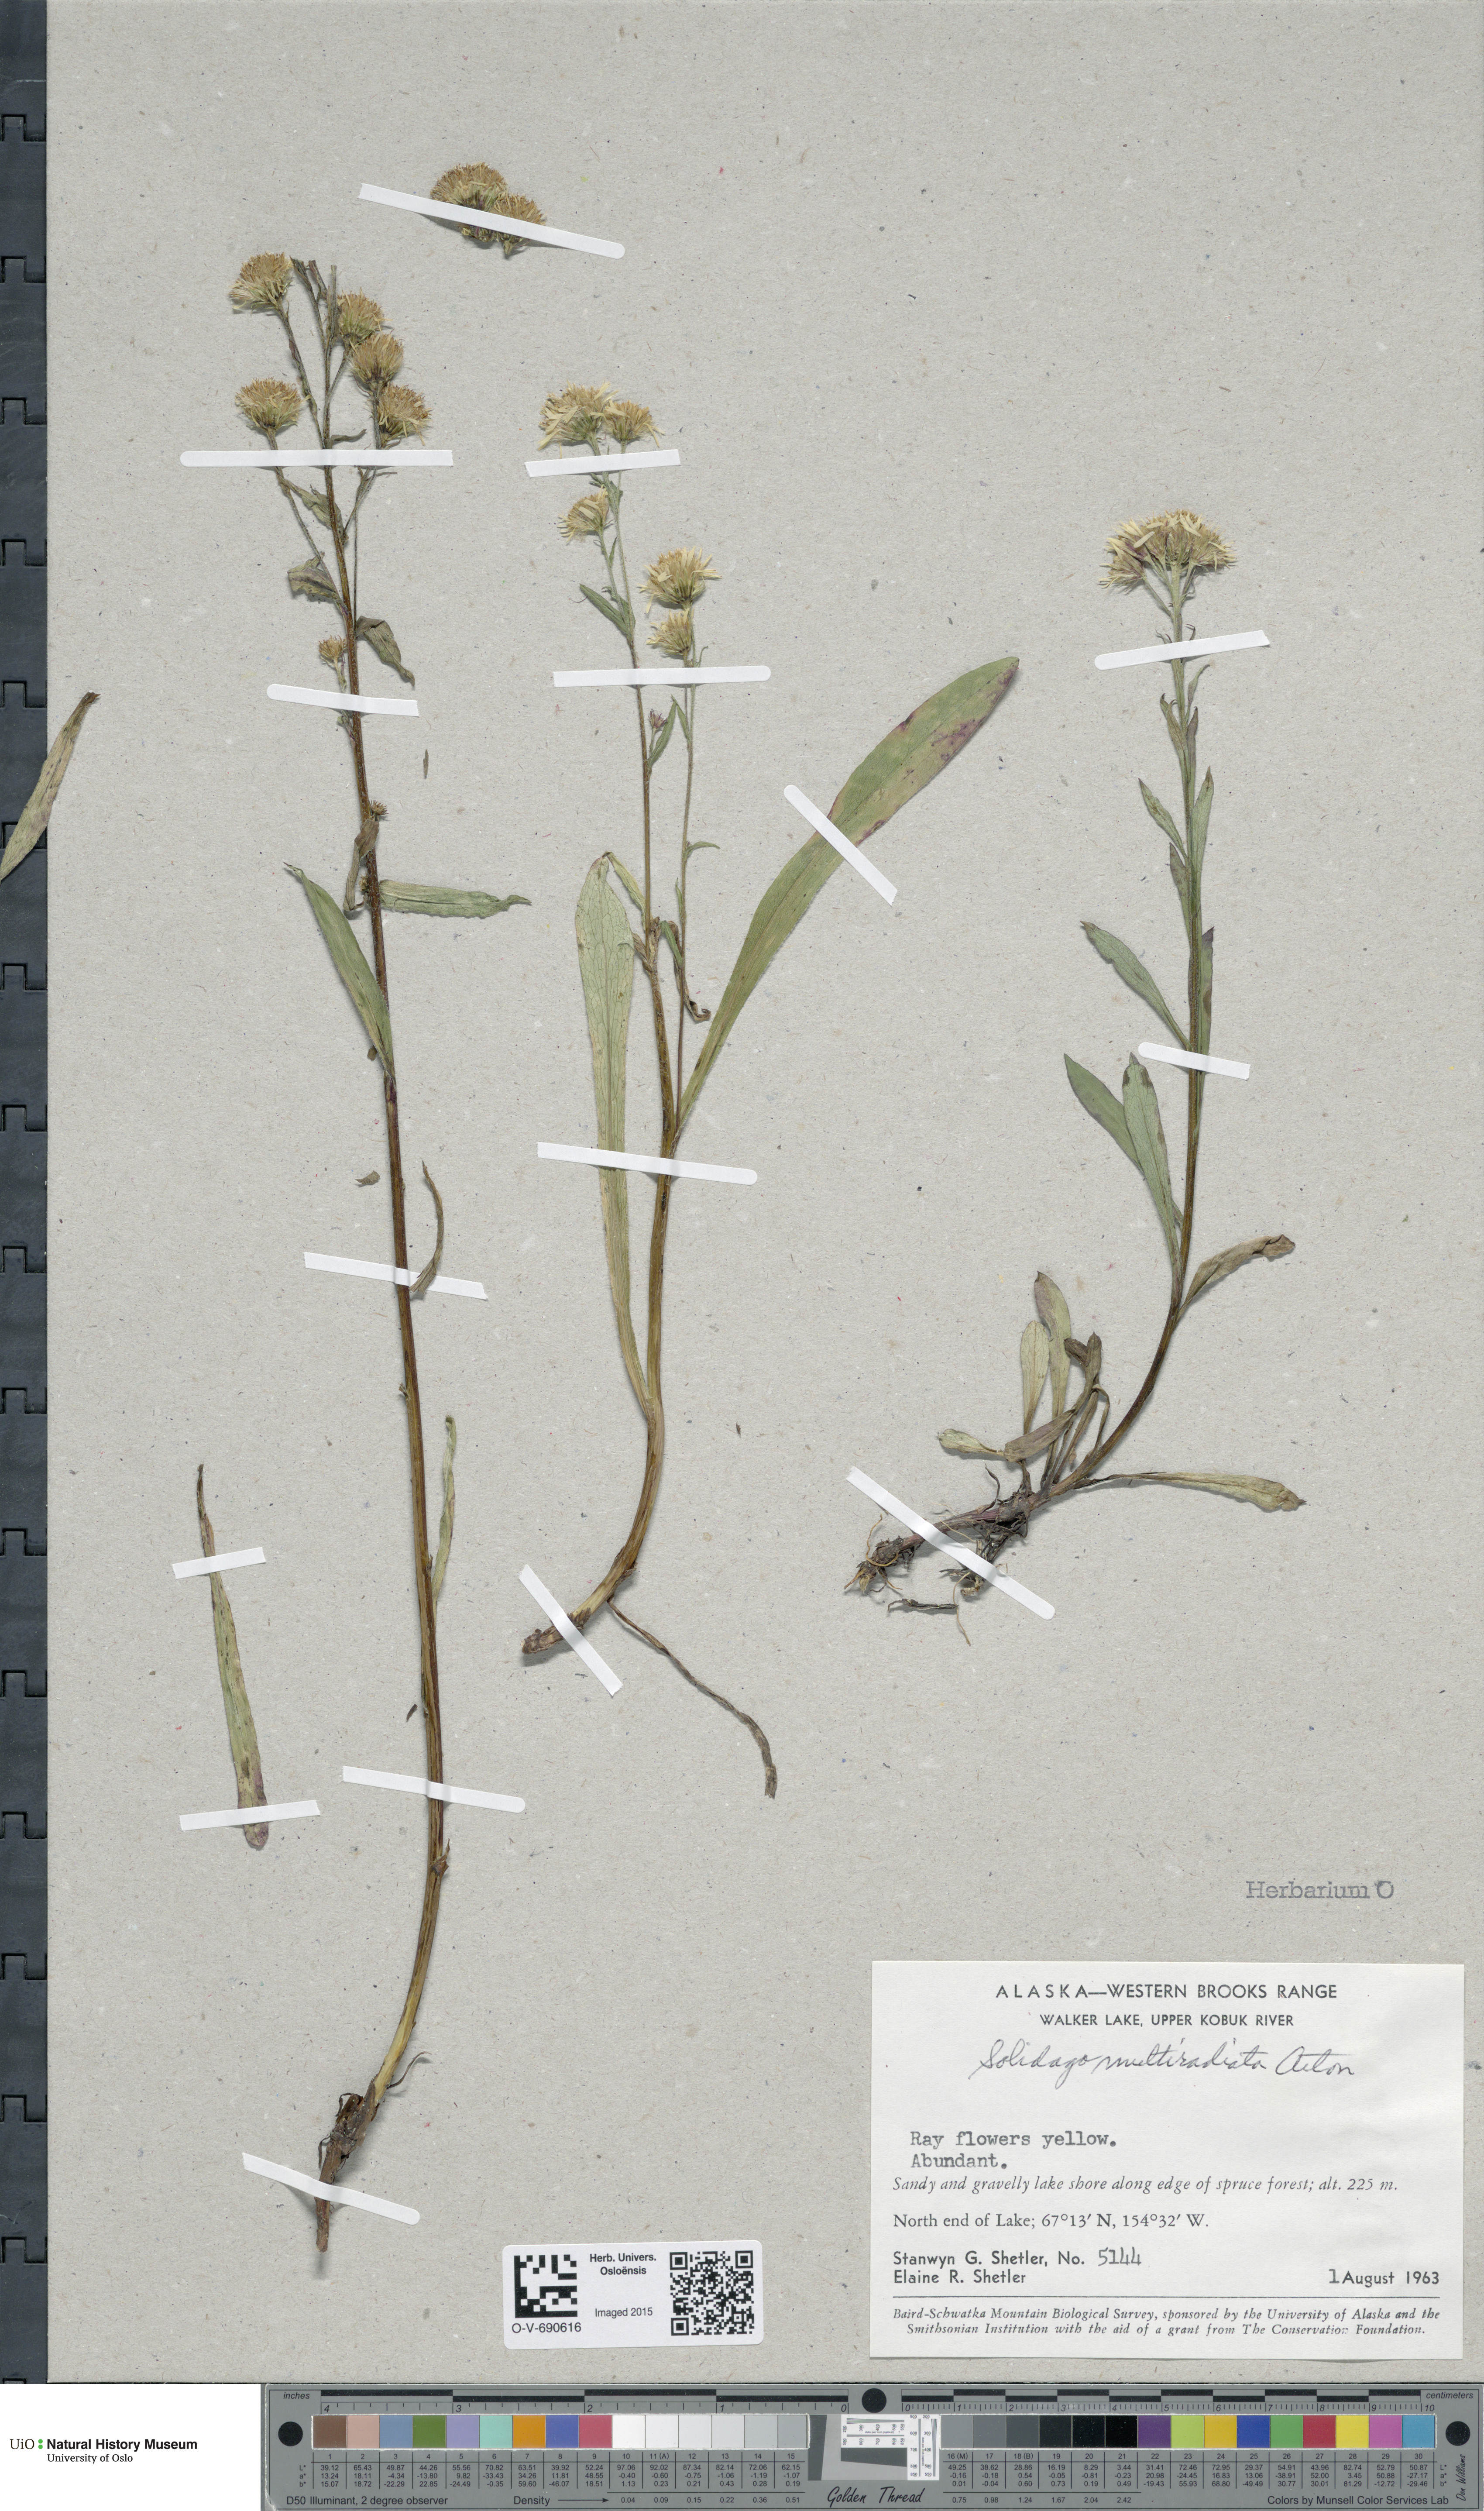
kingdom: Plantae
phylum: Tracheophyta
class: Magnoliopsida
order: Asterales
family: Asteraceae
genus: Solidago
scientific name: Solidago multiradiata
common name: Northern goldenrod
